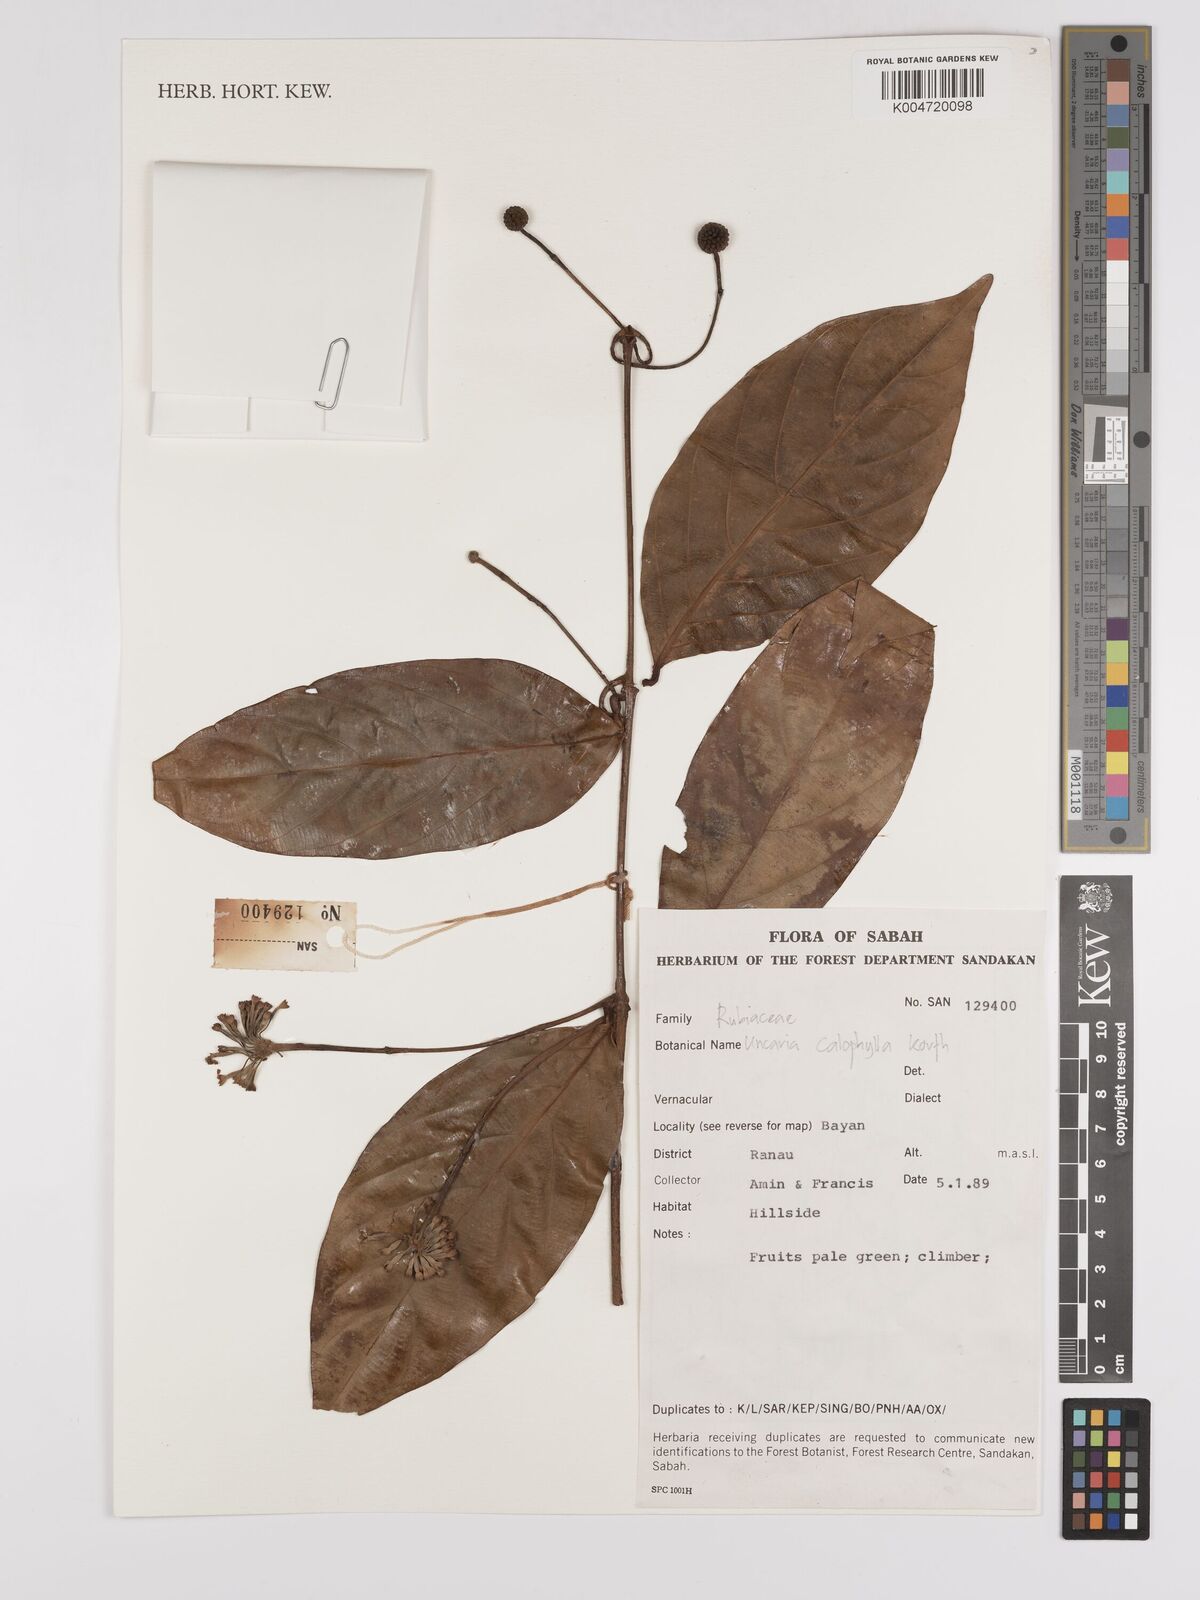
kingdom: Plantae
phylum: Tracheophyta
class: Magnoliopsida
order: Gentianales
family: Rubiaceae
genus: Uncaria
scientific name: Uncaria
